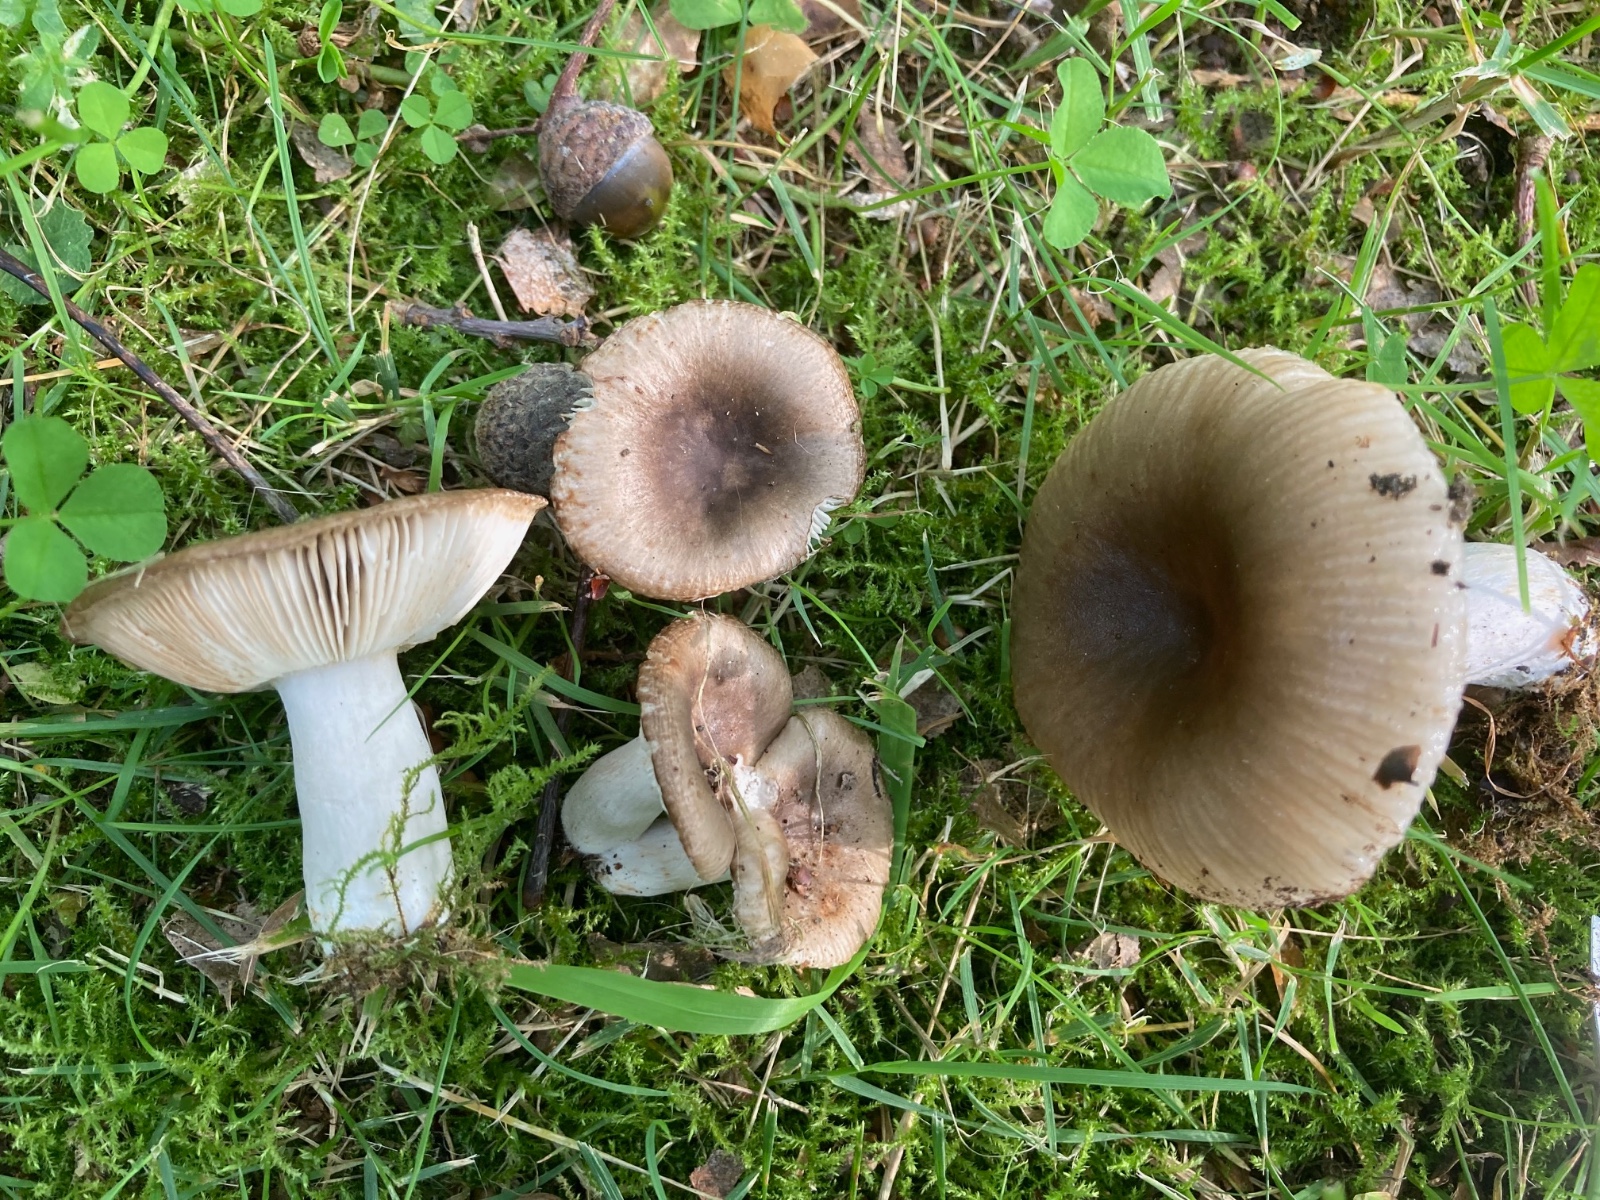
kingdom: Fungi
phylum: Basidiomycota
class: Agaricomycetes
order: Russulales
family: Russulaceae
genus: Russula
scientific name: Russula amoenolens
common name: skarp kam-skørhat
